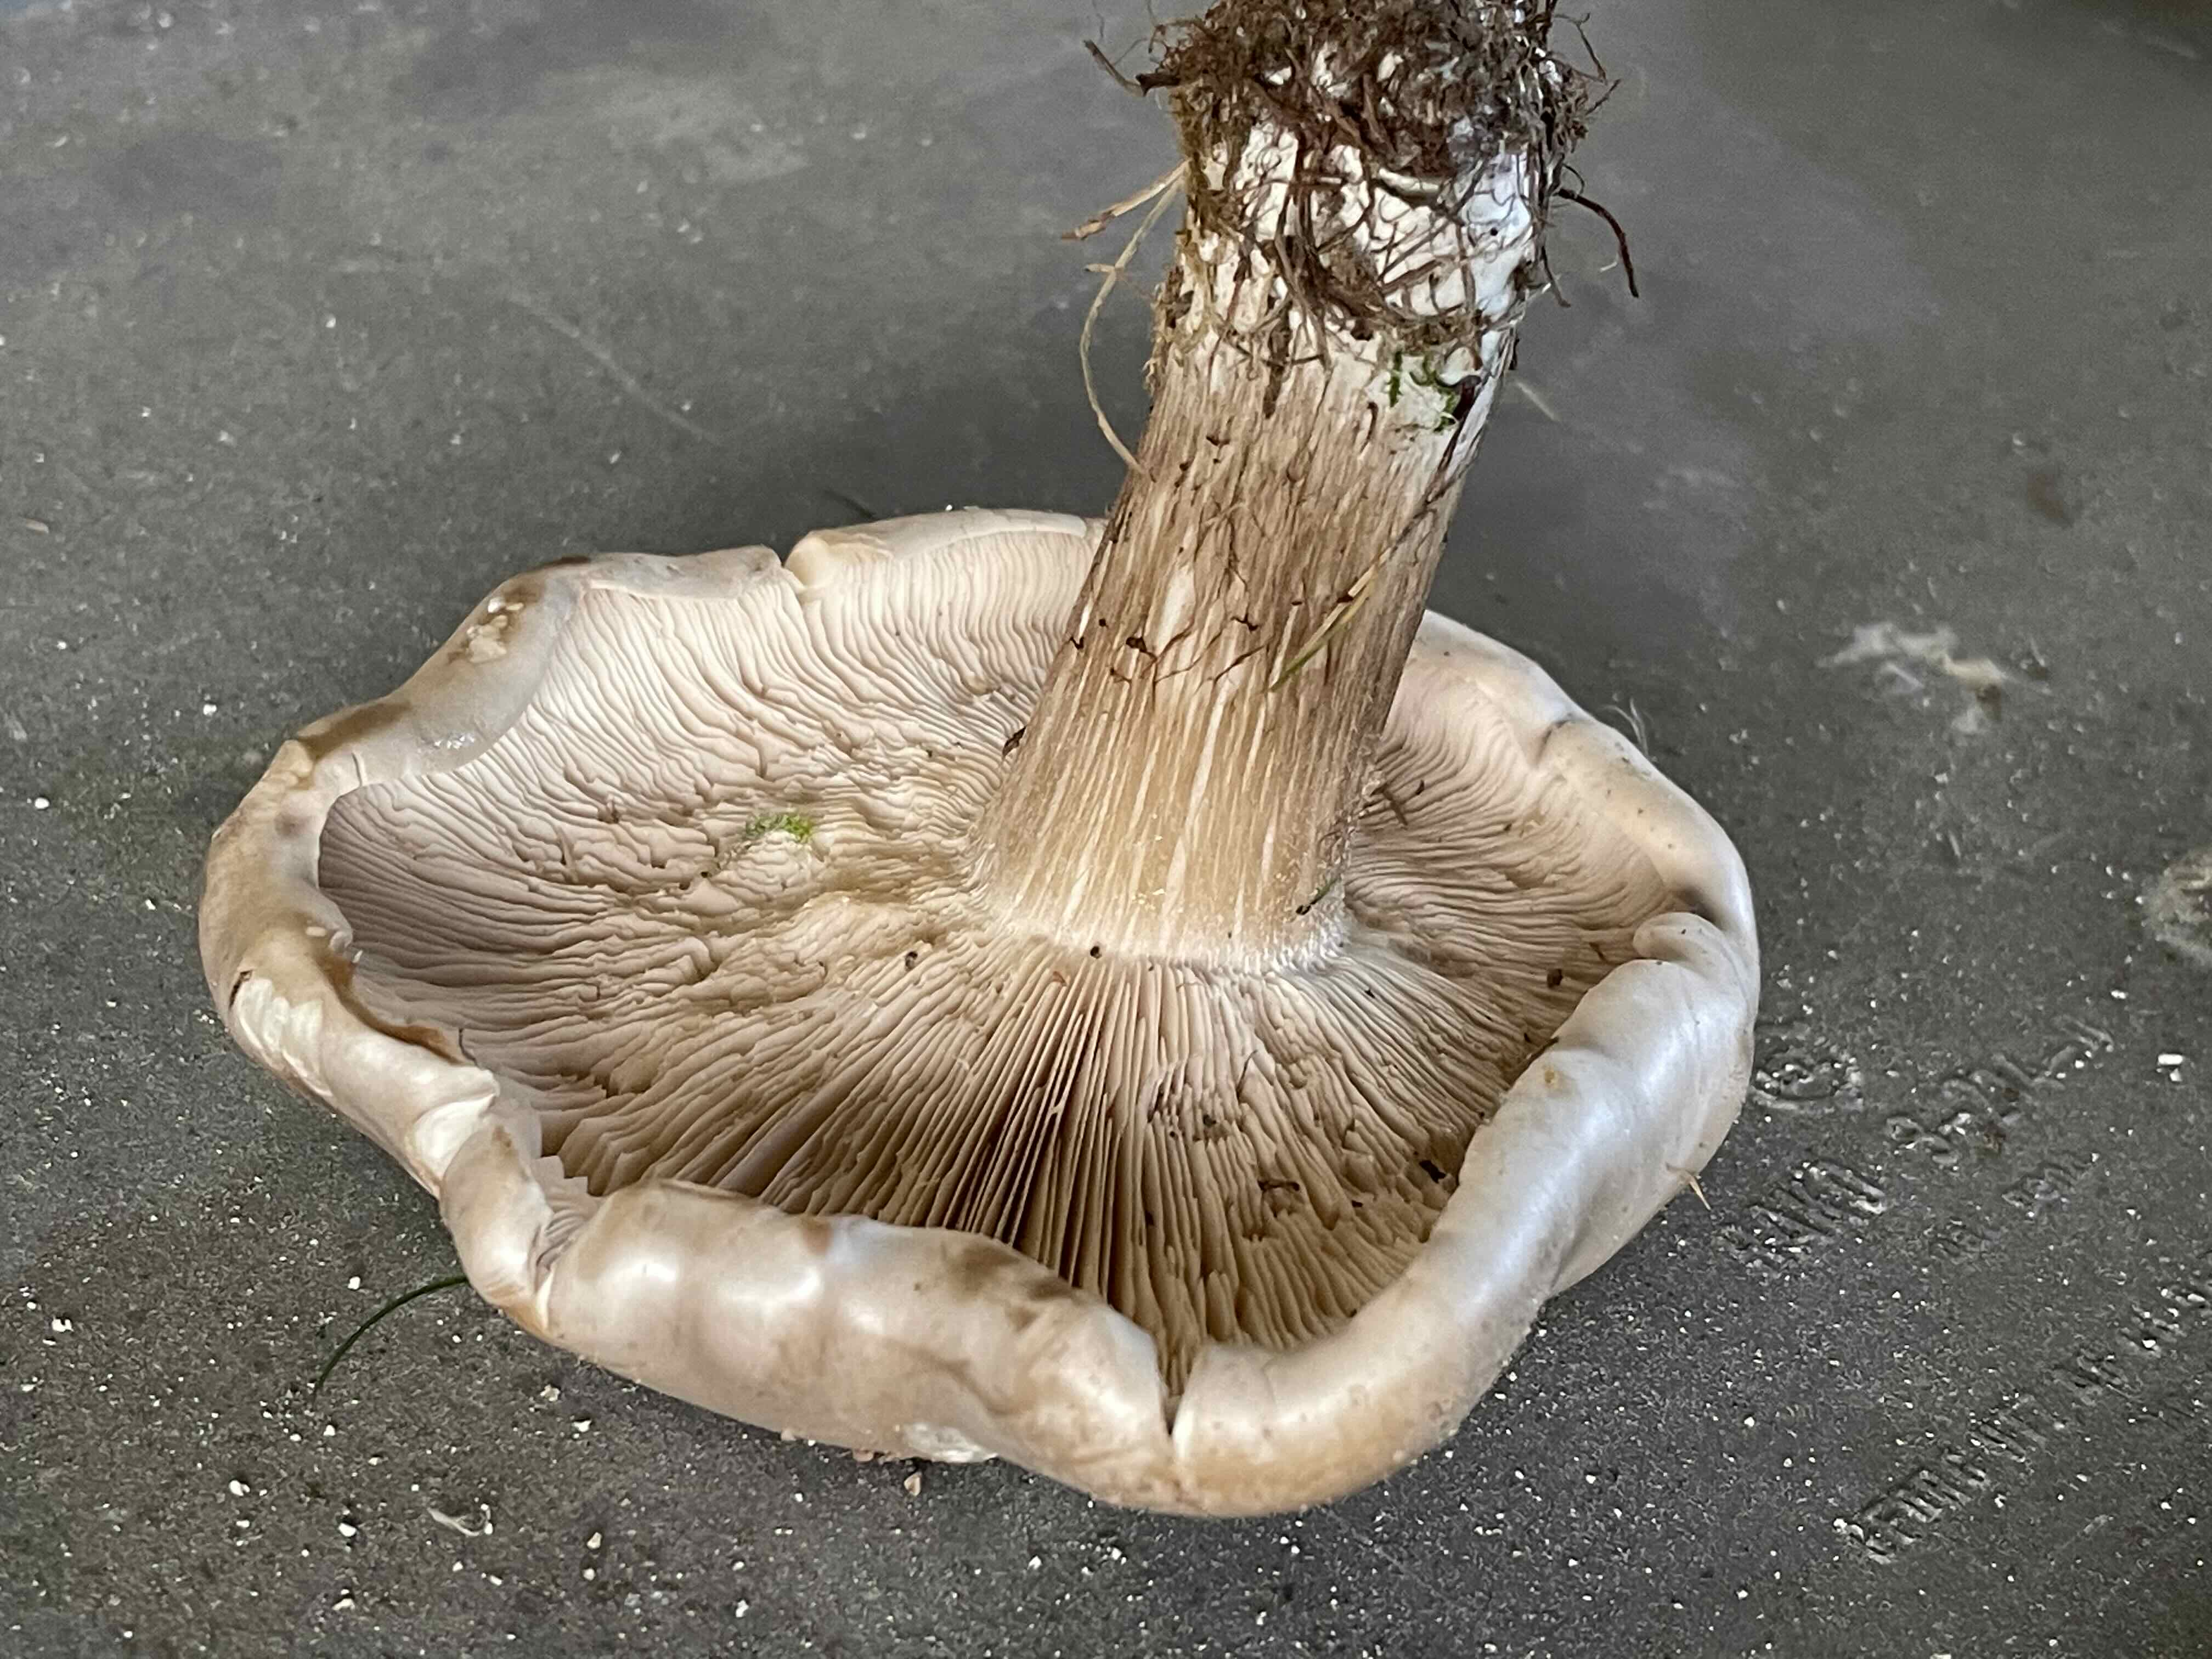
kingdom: Fungi
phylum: Basidiomycota
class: Agaricomycetes
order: Agaricales
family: Tricholomataceae
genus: Melanoleuca
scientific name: Melanoleuca
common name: munkehat
